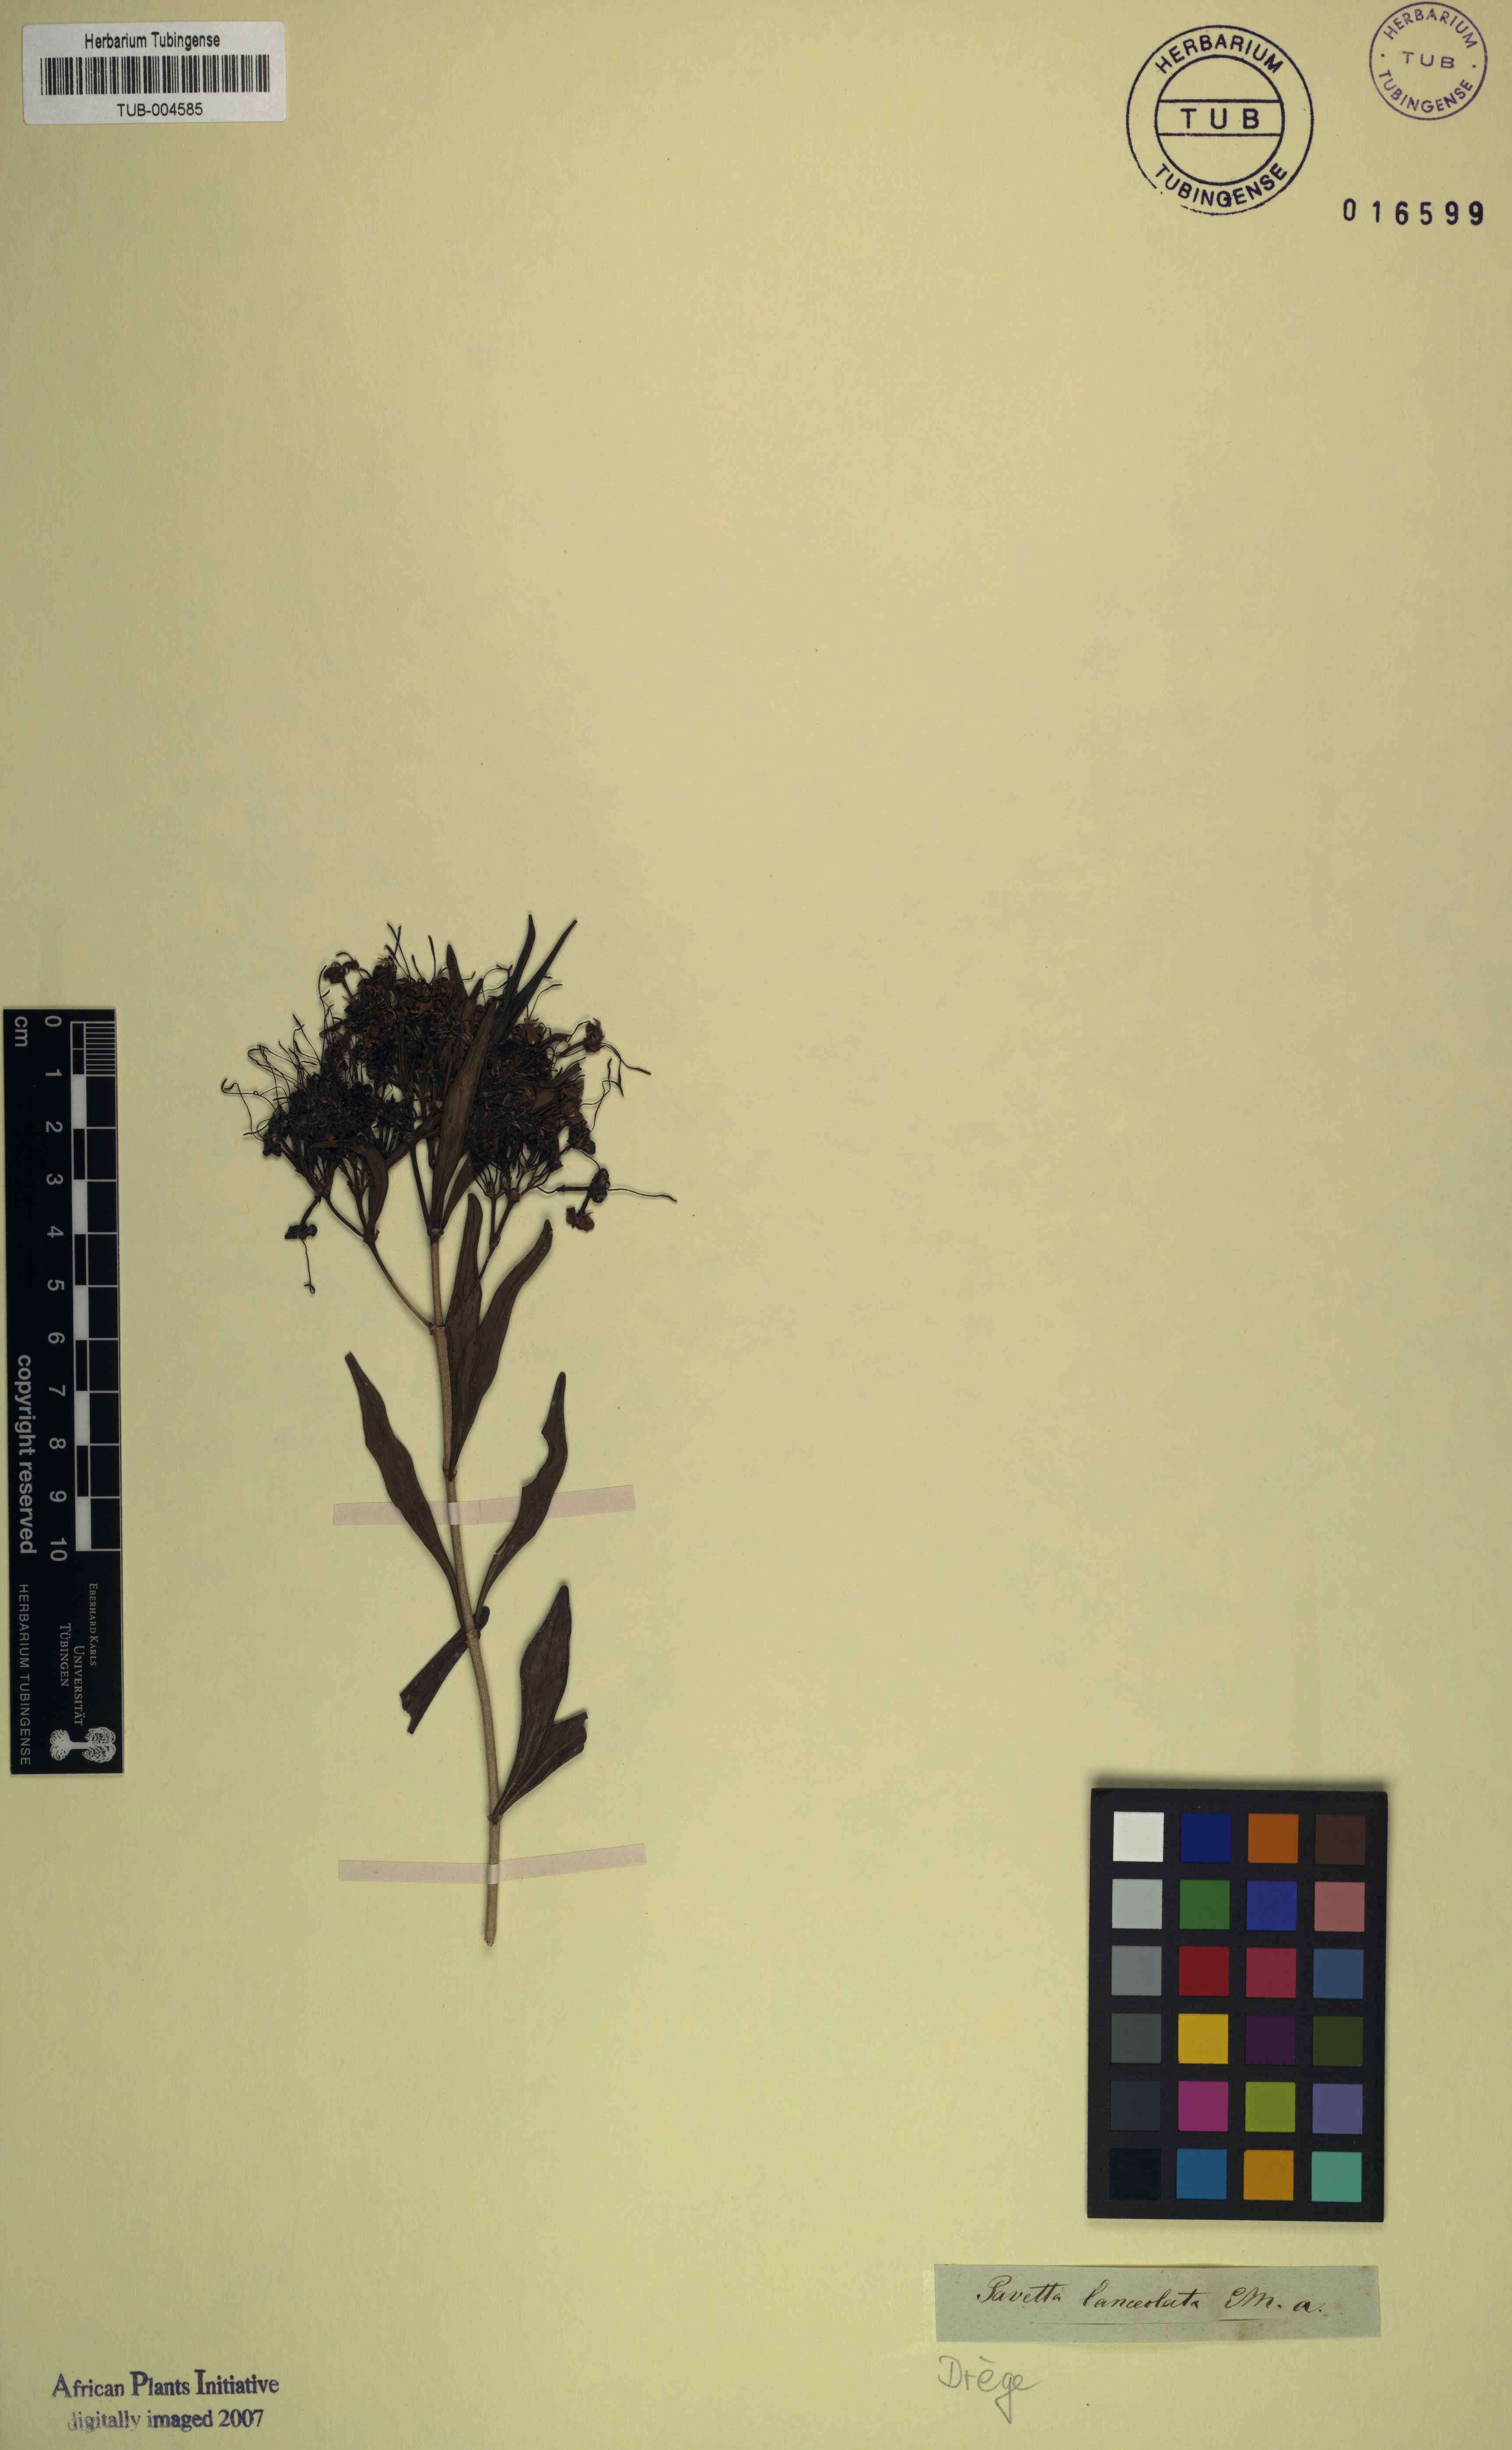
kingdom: Plantae
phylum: Tracheophyta
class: Magnoliopsida
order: Gentianales
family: Rubiaceae
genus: Pavetta
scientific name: Pavetta lanceolata
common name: Weeping brides-bush
